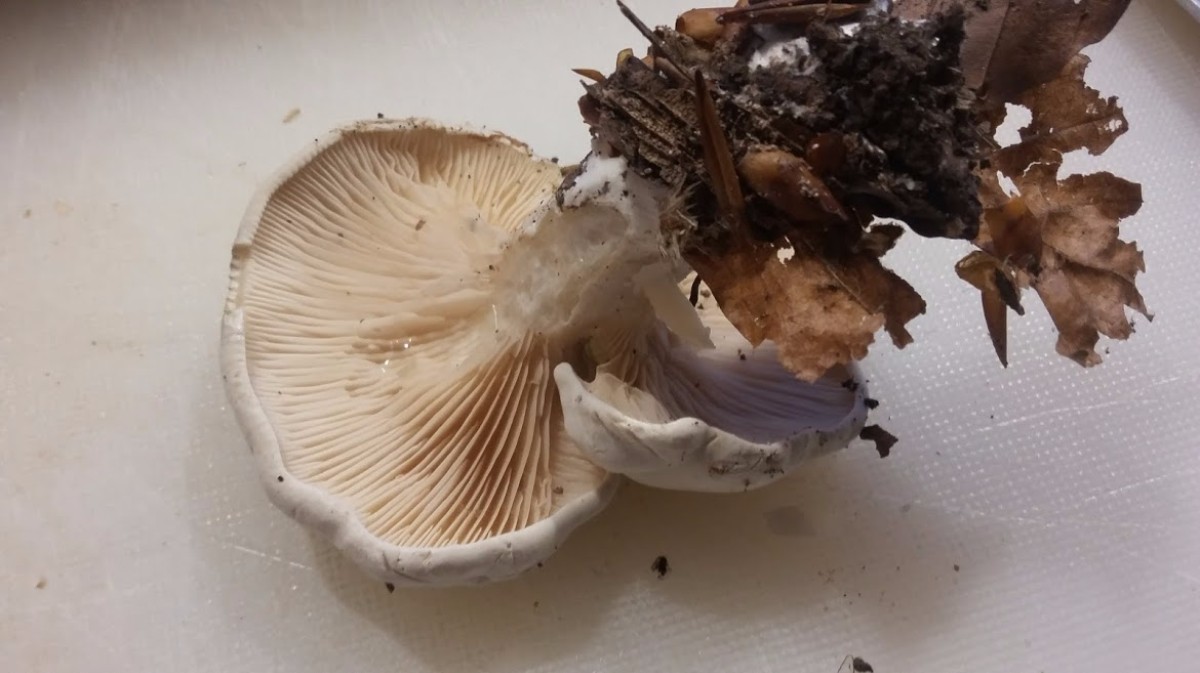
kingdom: Fungi
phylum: Basidiomycota
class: Agaricomycetes
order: Agaricales
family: Entolomataceae
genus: Clitopilus
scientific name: Clitopilus prunulus
